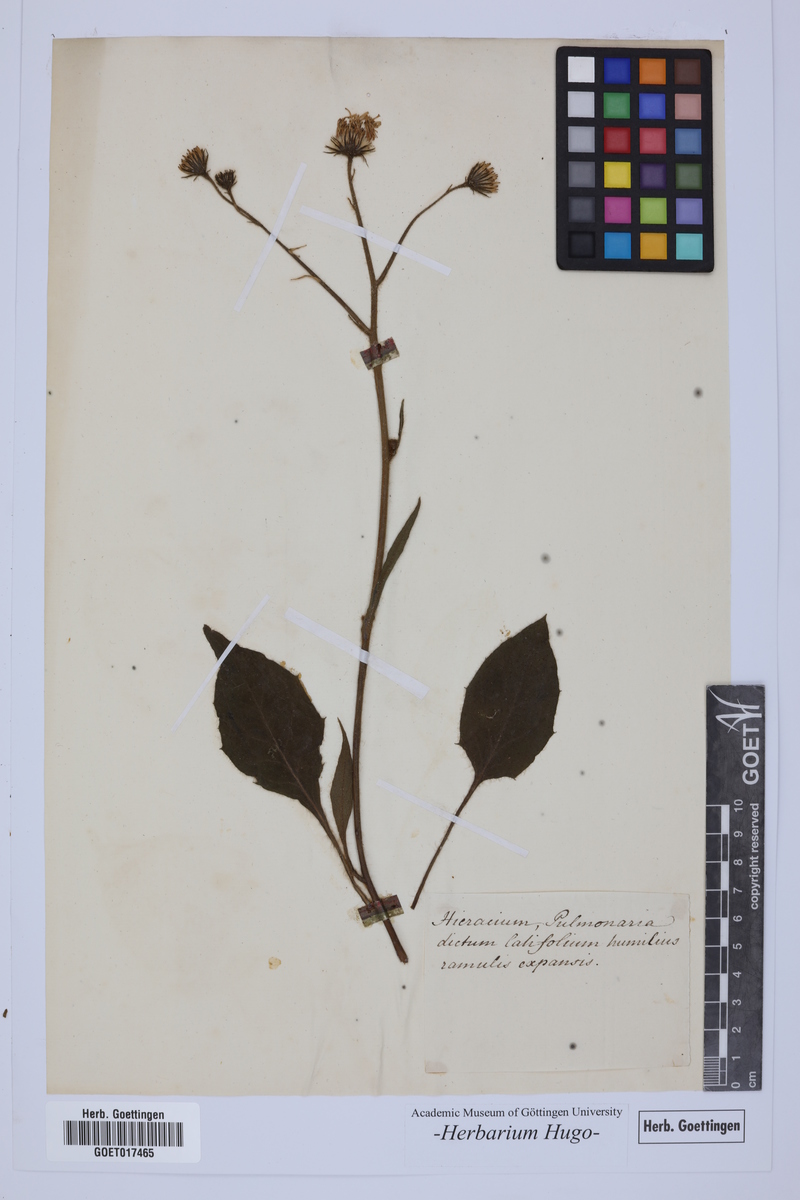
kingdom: Plantae
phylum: Tracheophyta
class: Magnoliopsida
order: Asterales
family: Asteraceae
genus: Hieracium
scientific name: Hieracium
